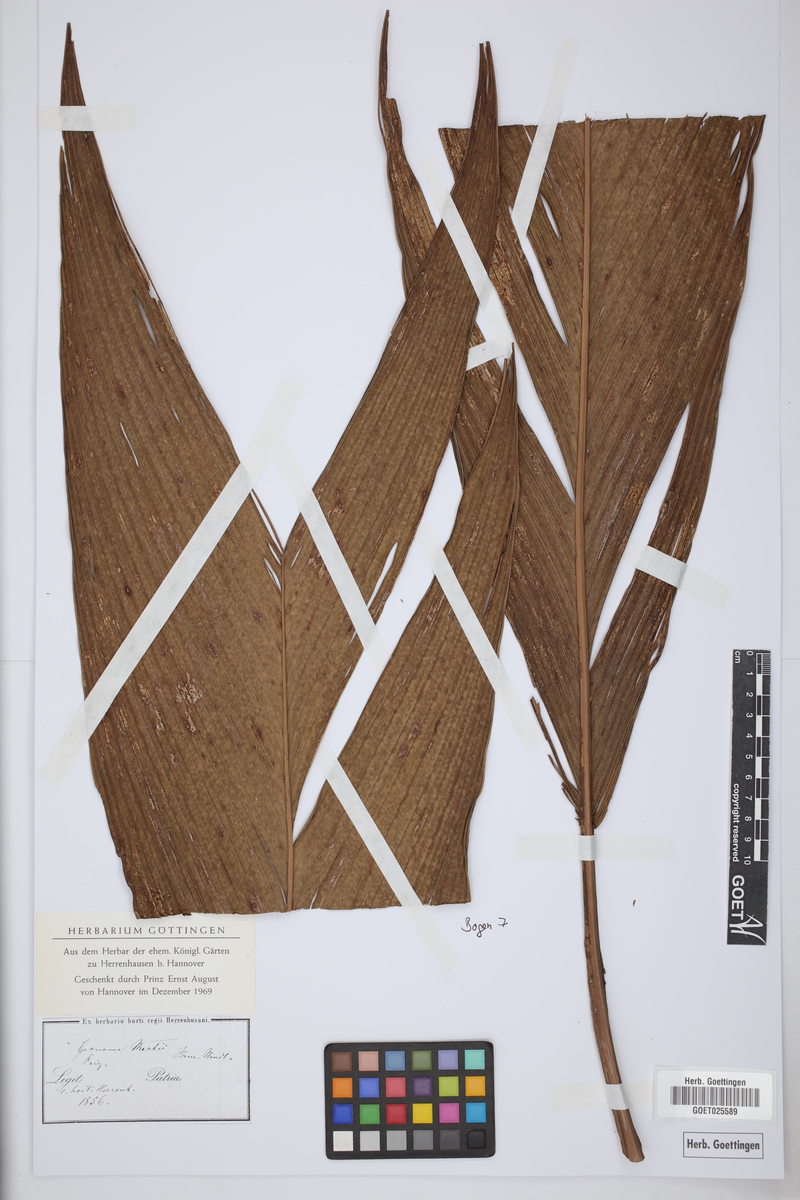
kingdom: Plantae
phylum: Tracheophyta
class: Liliopsida
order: Arecales
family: Arecaceae
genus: Asterogyne
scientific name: Asterogyne martiana
